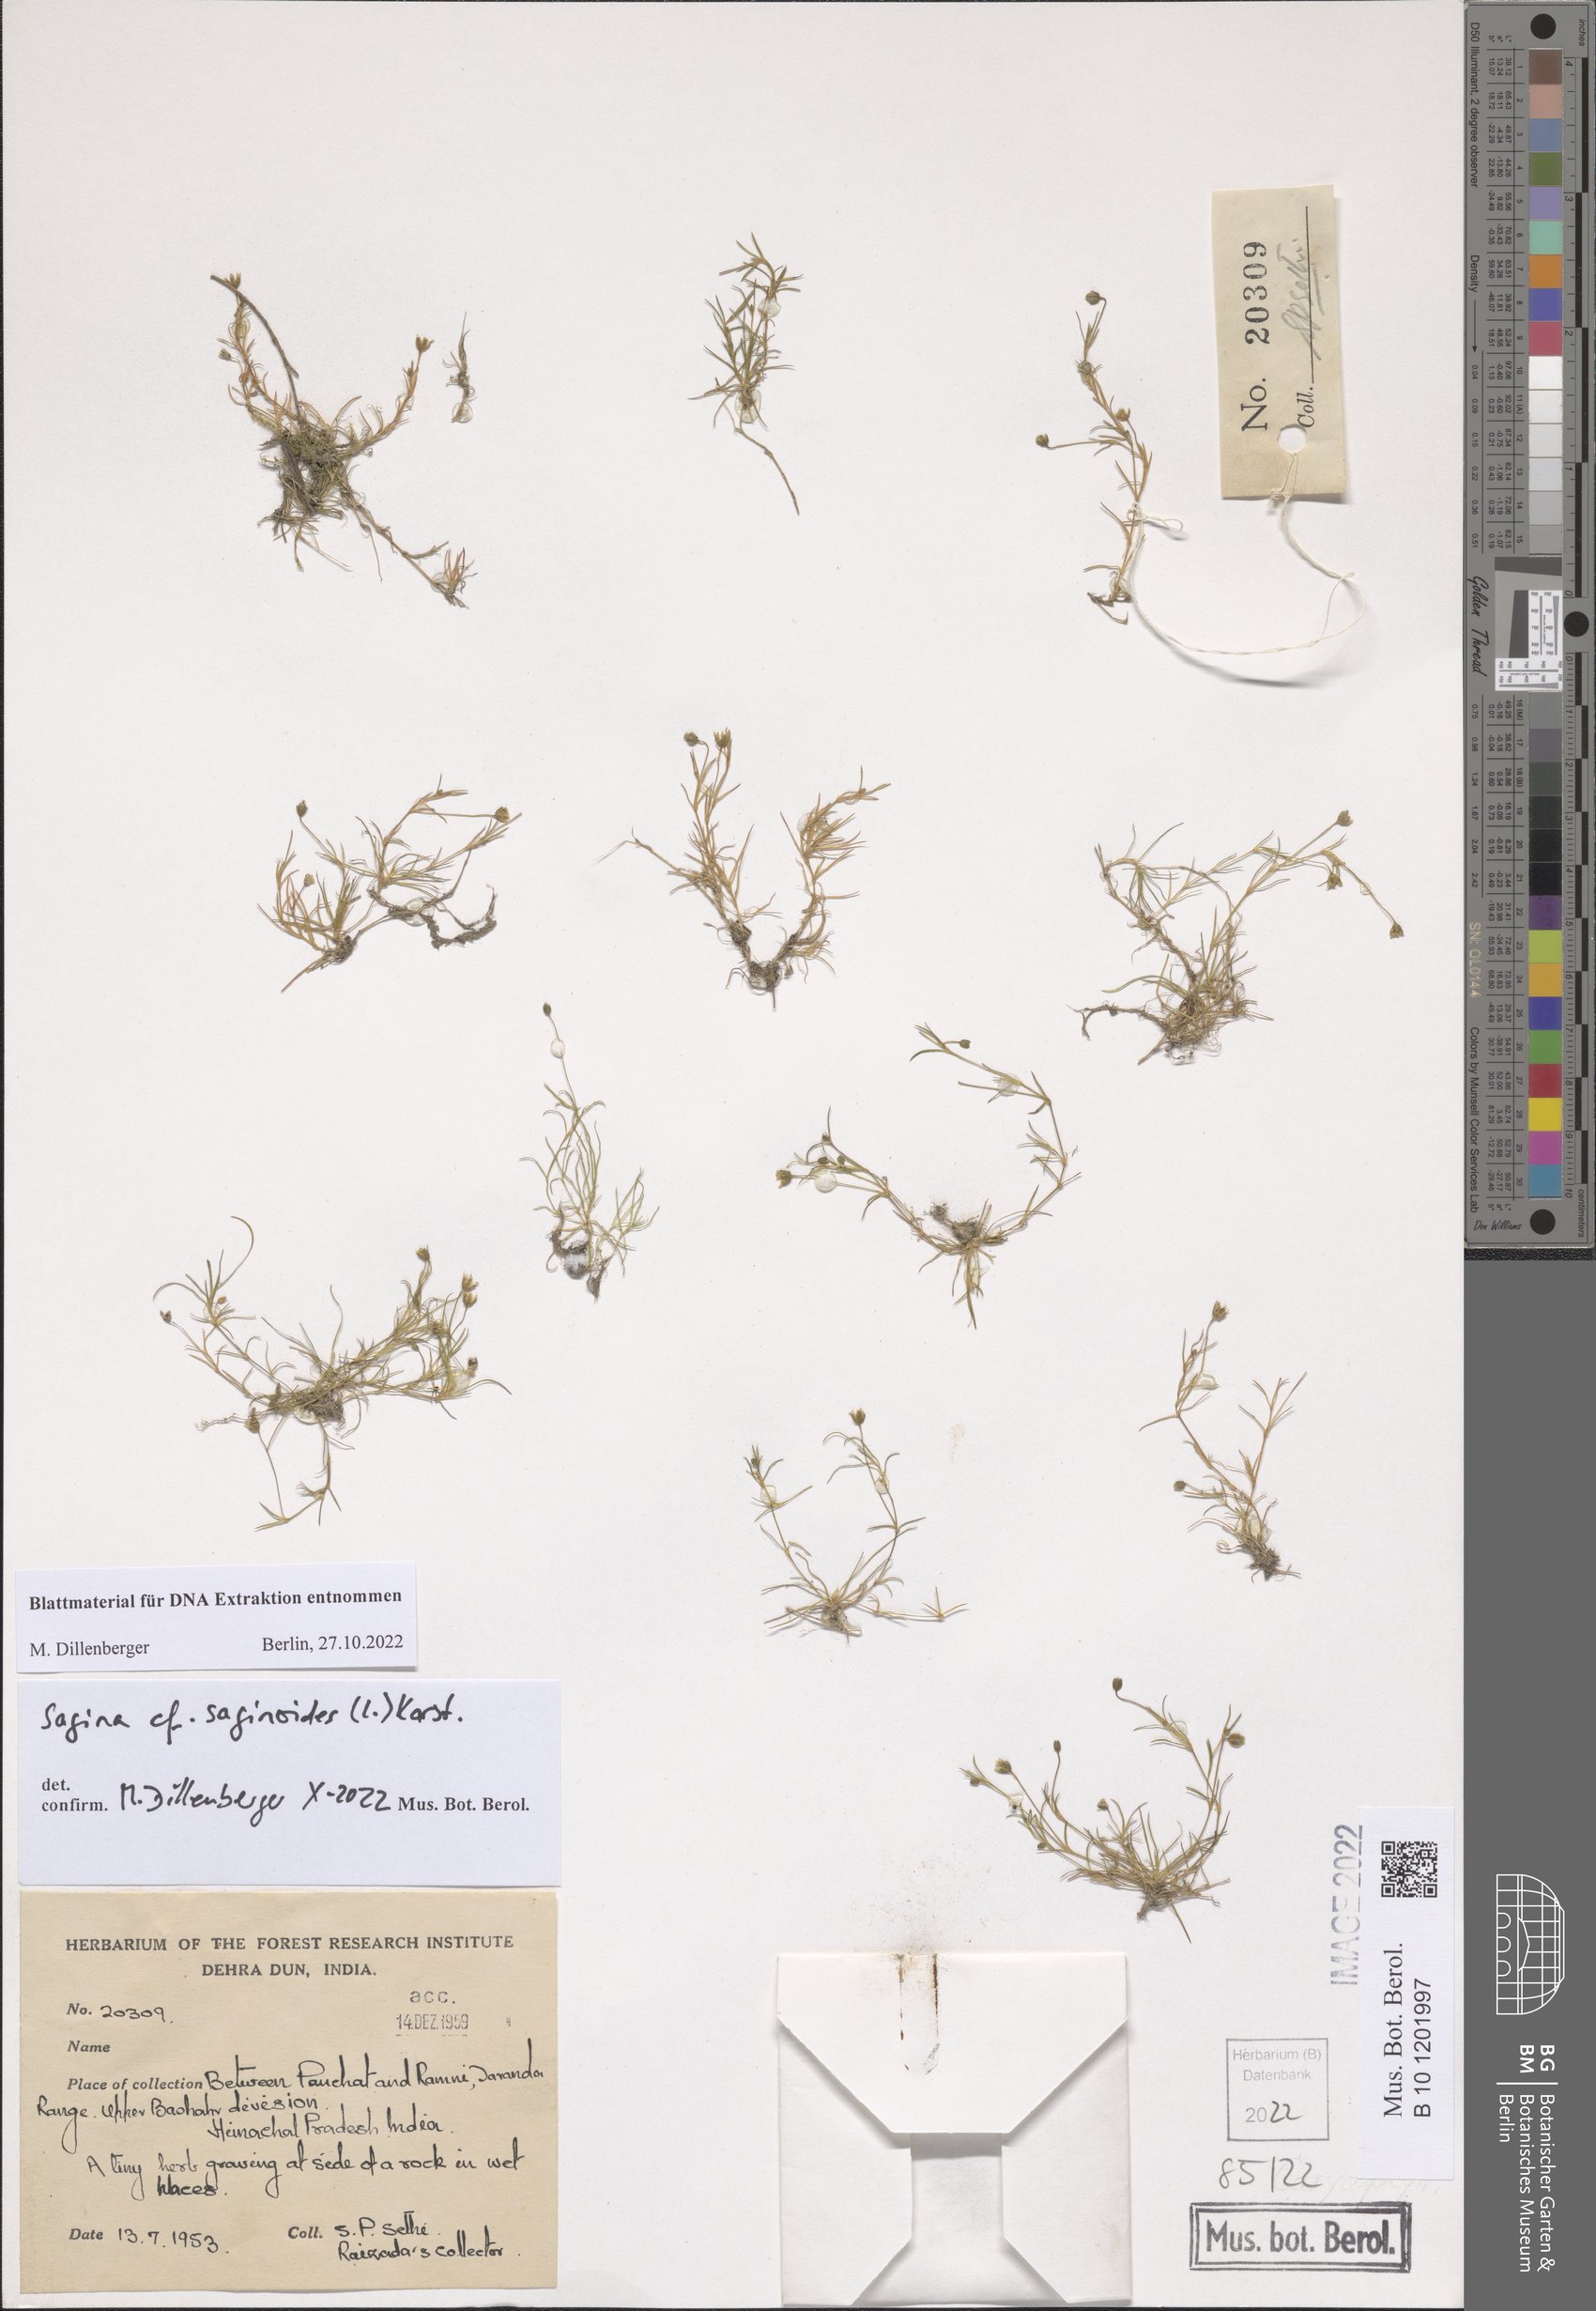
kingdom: Plantae
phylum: Tracheophyta
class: Magnoliopsida
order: Caryophyllales
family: Caryophyllaceae
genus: Sagina
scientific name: Sagina saginoides
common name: Alpine pearlwort
